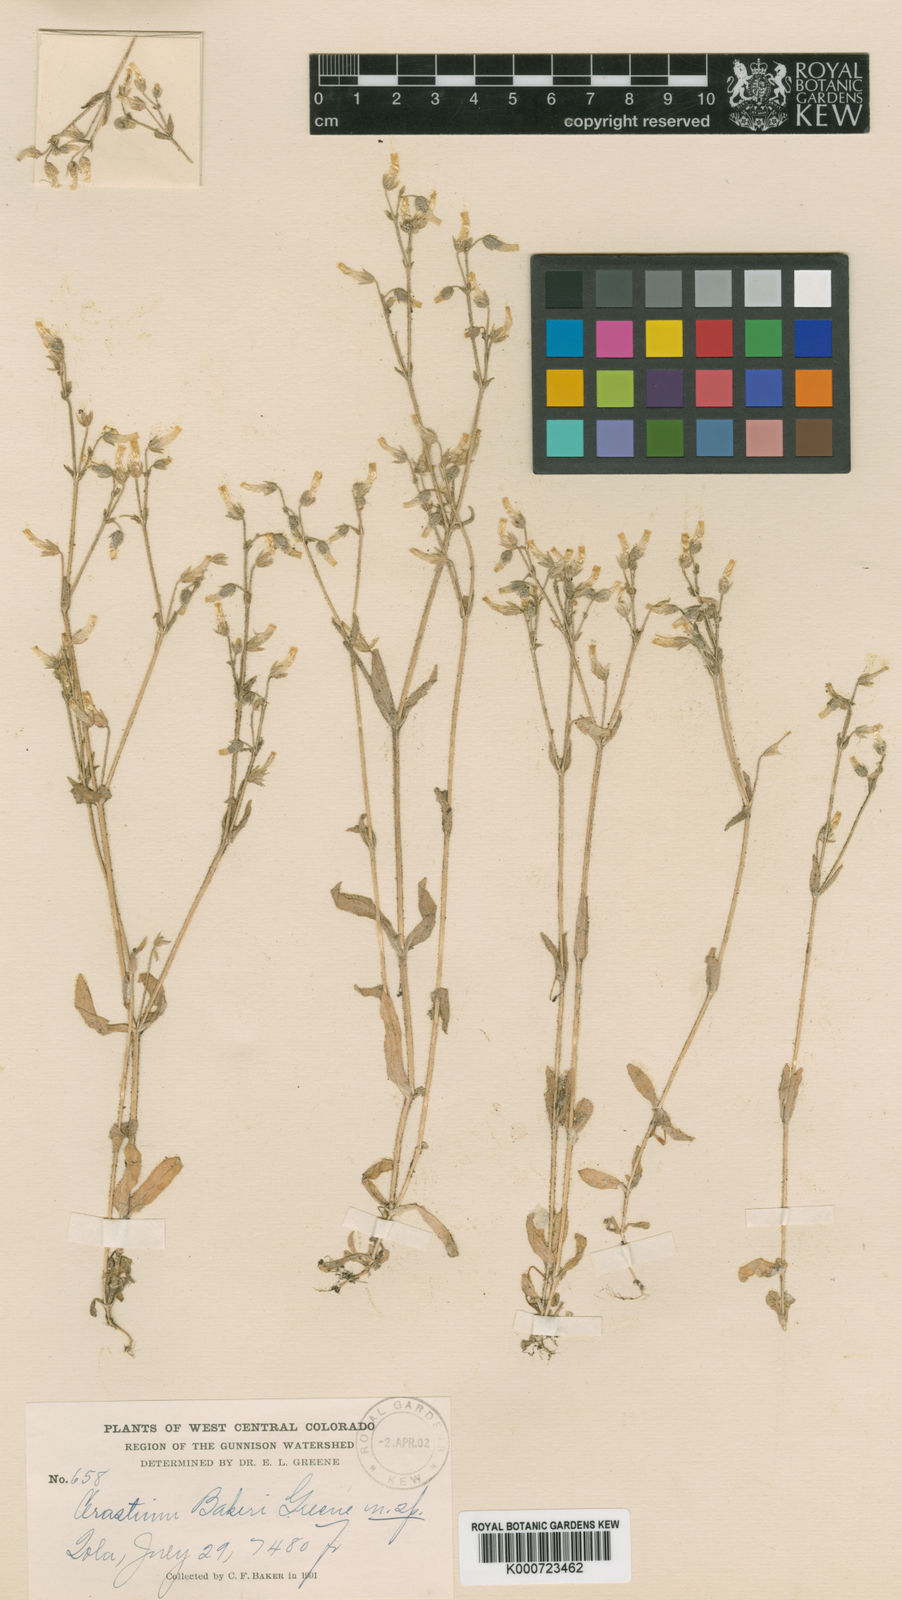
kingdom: Plantae
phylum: Tracheophyta
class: Magnoliopsida
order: Caryophyllales
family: Caryophyllaceae
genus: Cerastium
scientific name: Cerastium
